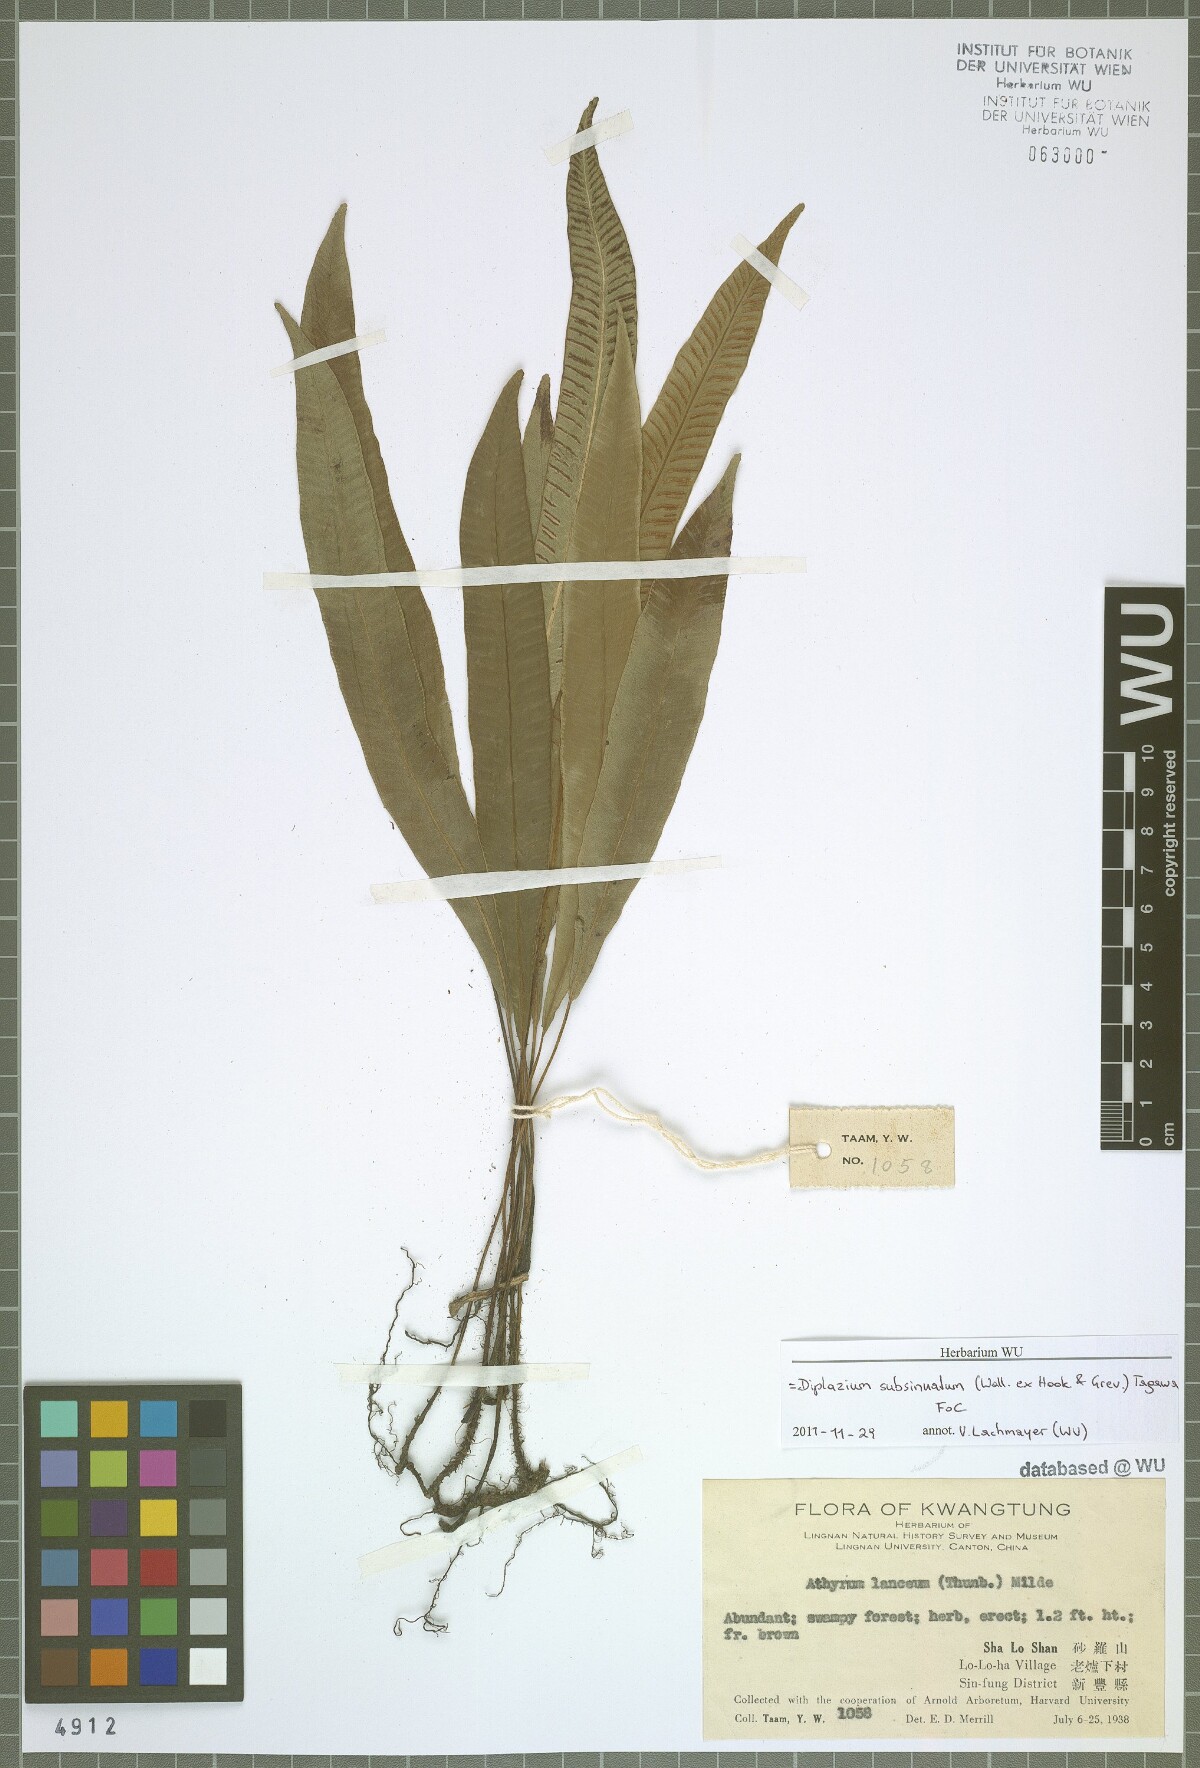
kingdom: Plantae
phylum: Tracheophyta
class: Polypodiopsida
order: Polypodiales
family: Athyriaceae
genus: Deparia
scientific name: Deparia lancea
